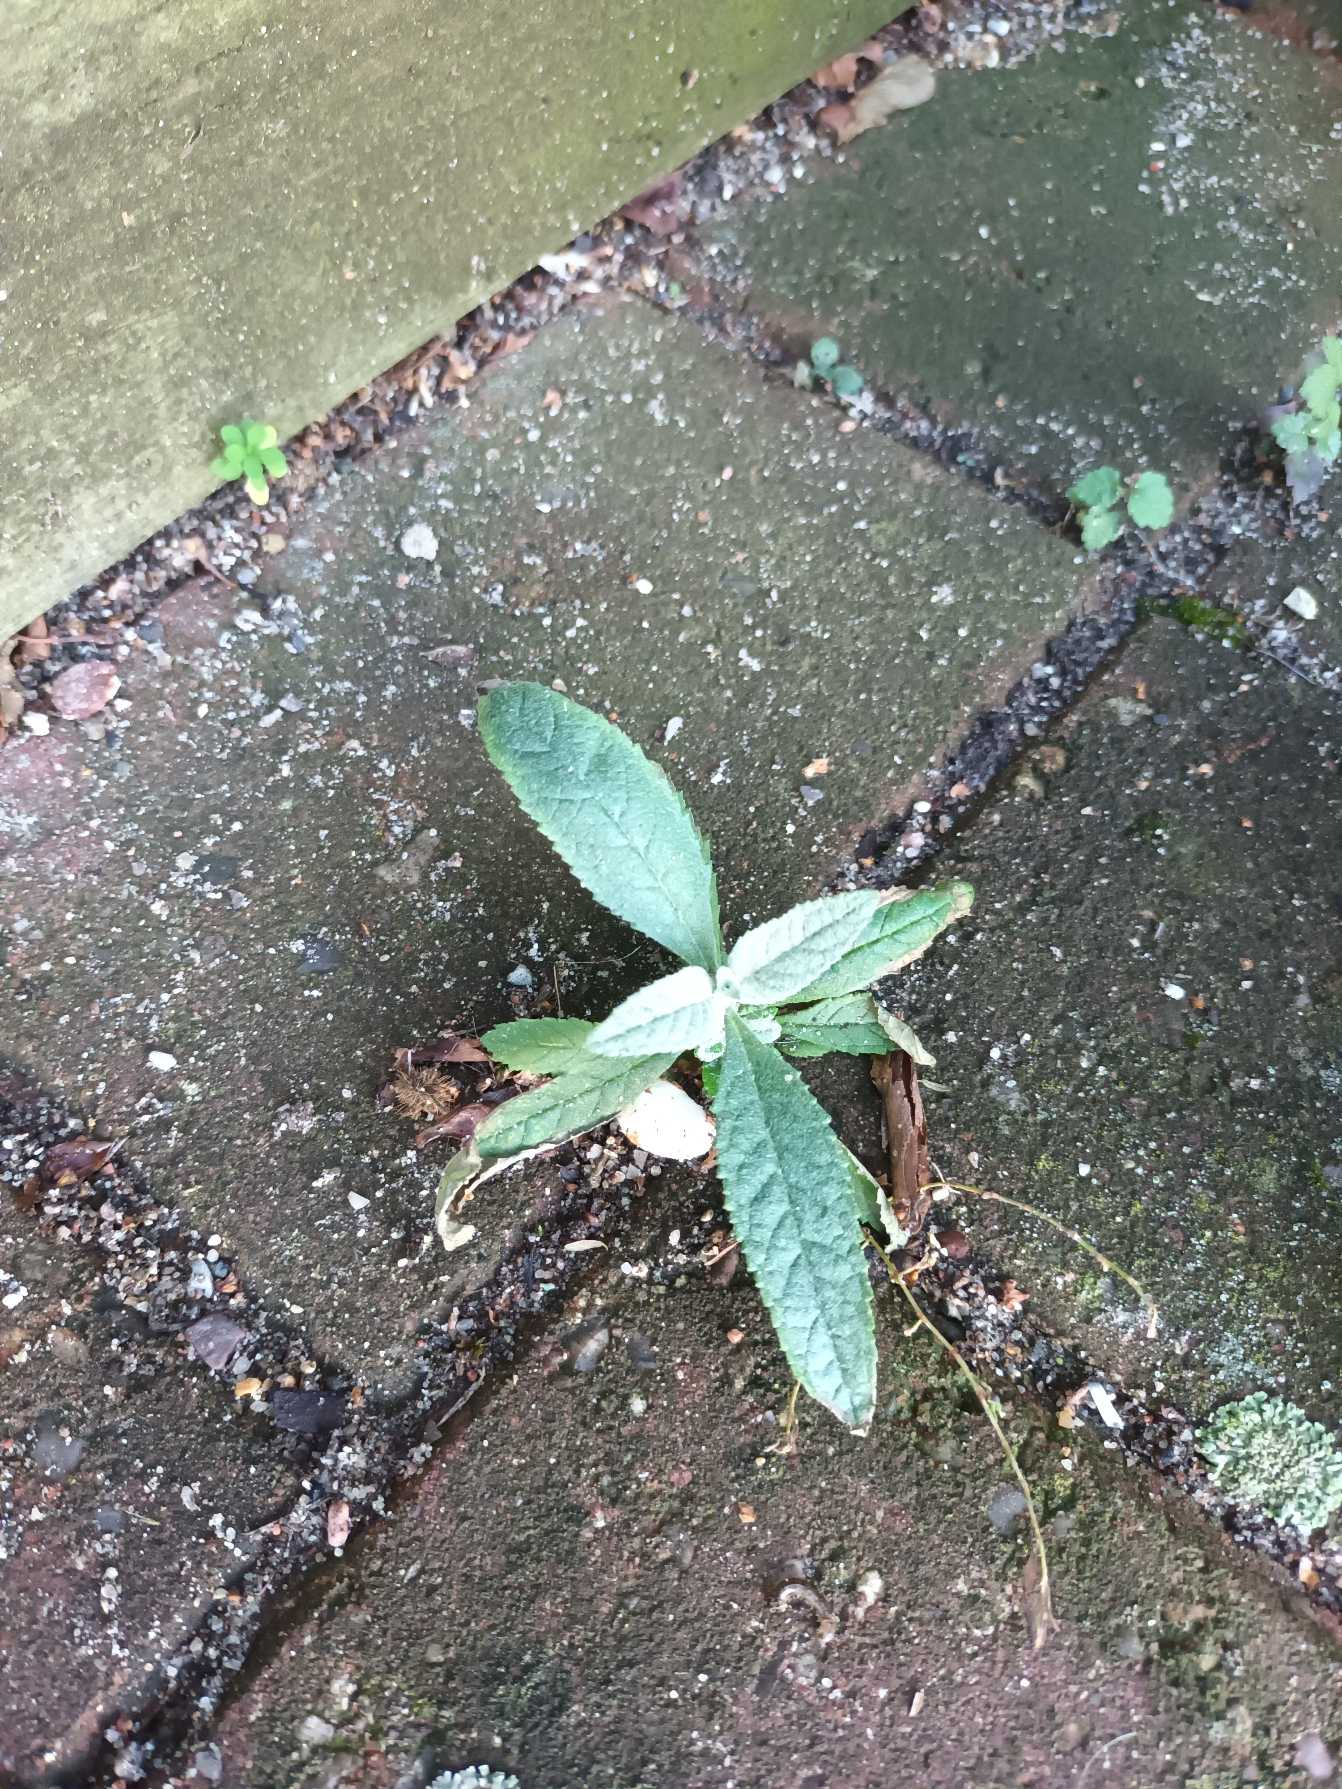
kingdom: Plantae
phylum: Tracheophyta
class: Magnoliopsida
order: Lamiales
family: Scrophulariaceae
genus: Buddleja
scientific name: Buddleja davidii
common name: Sommerfuglebusk
